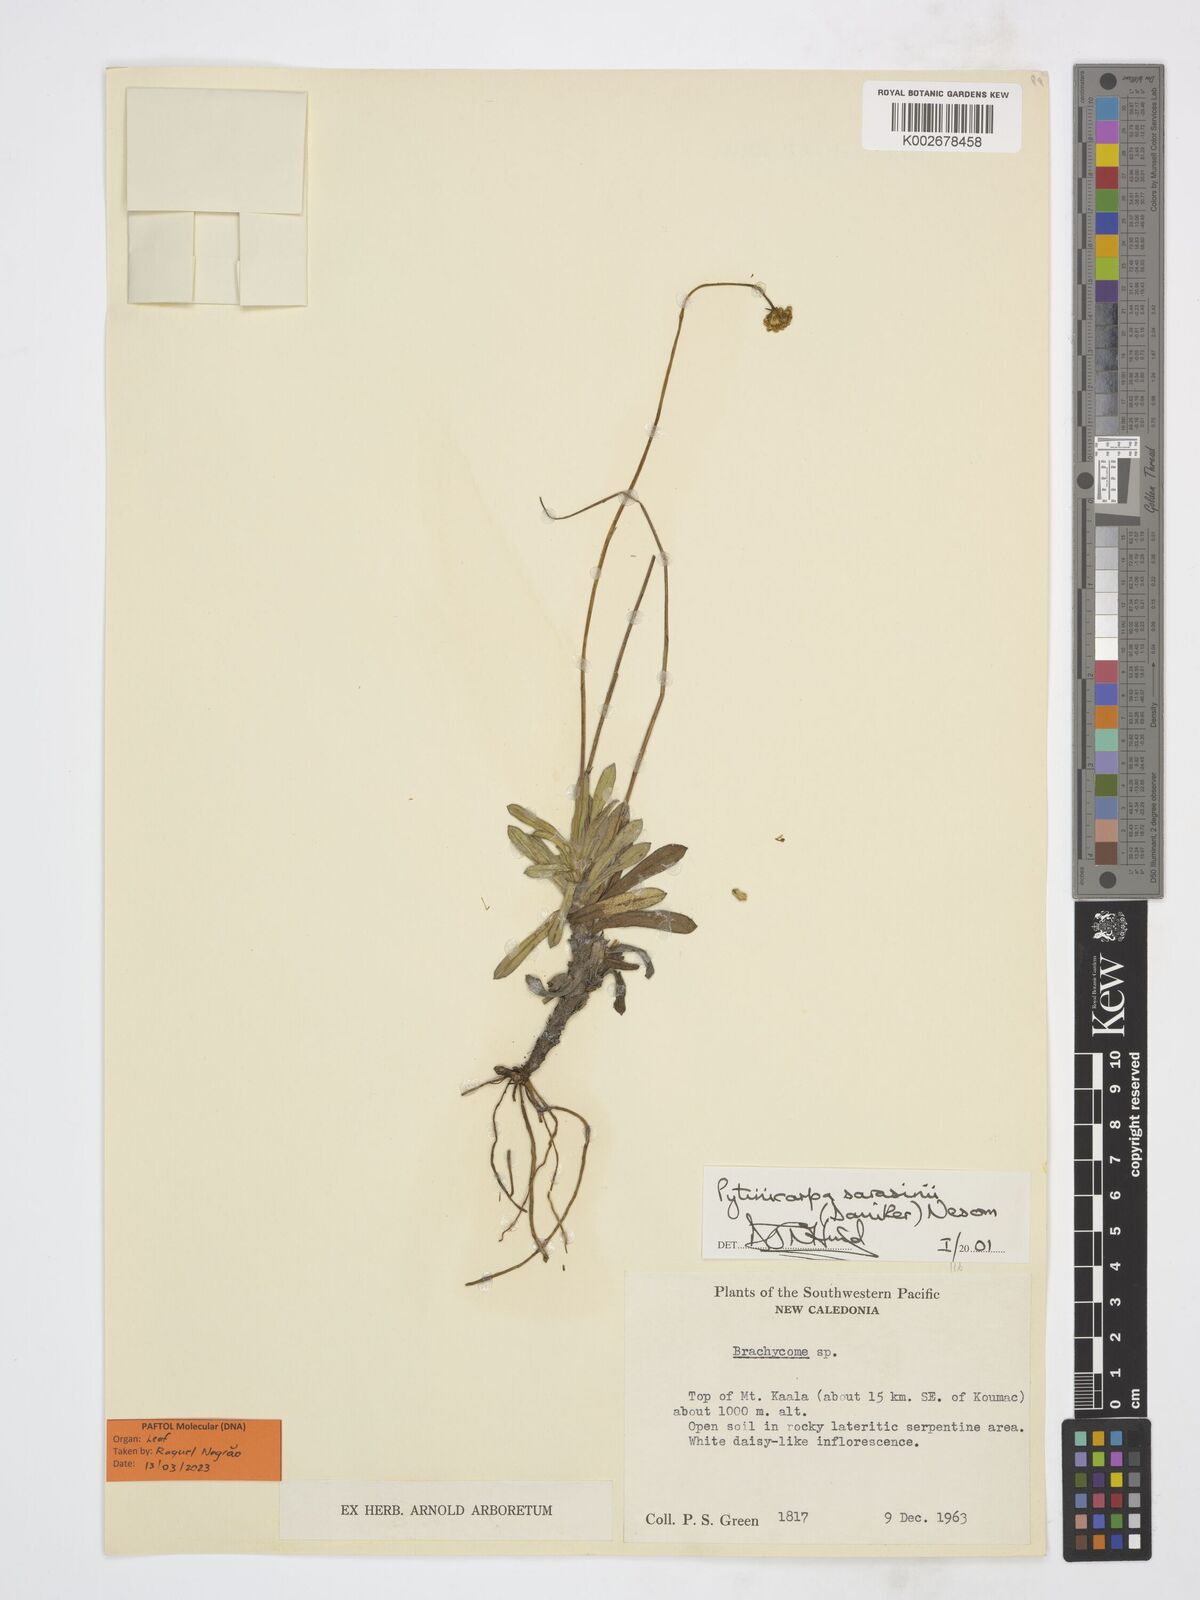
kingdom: Plantae
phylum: Tracheophyta
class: Magnoliopsida
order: Asterales
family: Asteraceae
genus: Pytinicarpa
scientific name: Pytinicarpa sarasinii
